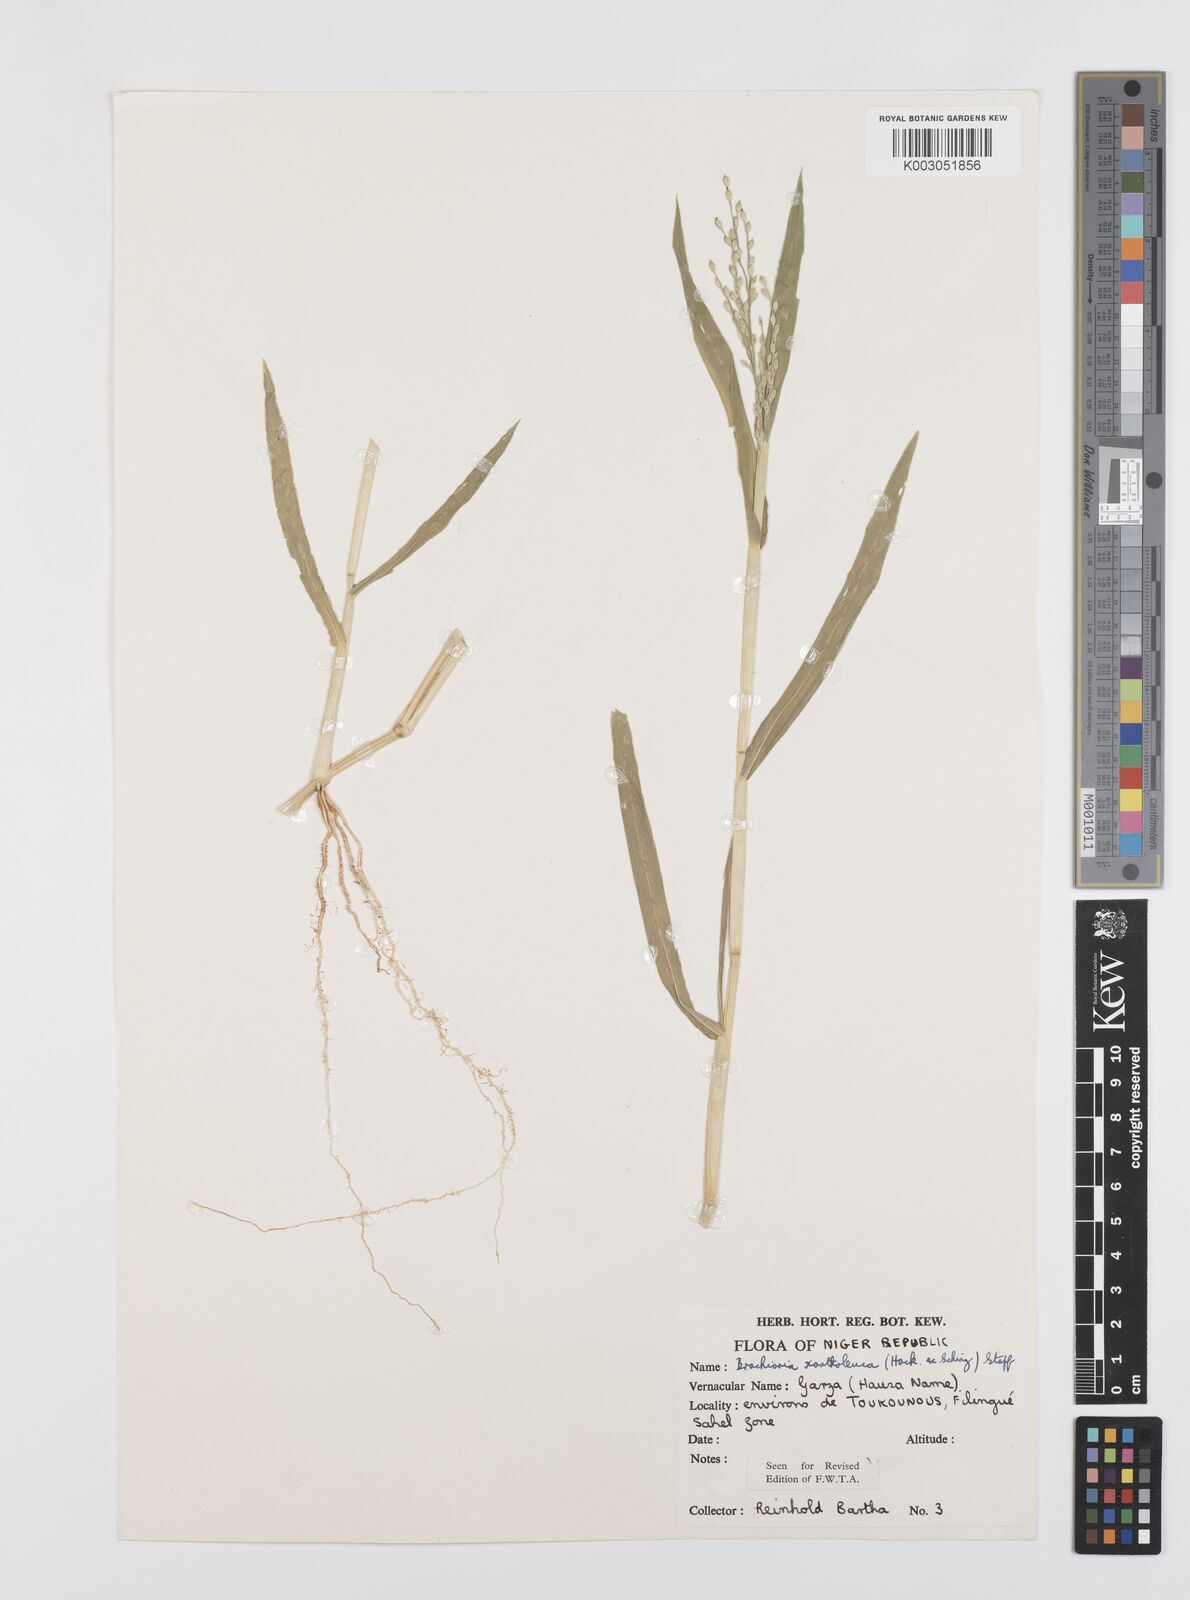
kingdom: Plantae
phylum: Tracheophyta
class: Liliopsida
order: Poales
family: Poaceae
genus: Urochloa
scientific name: Urochloa xantholeuca
